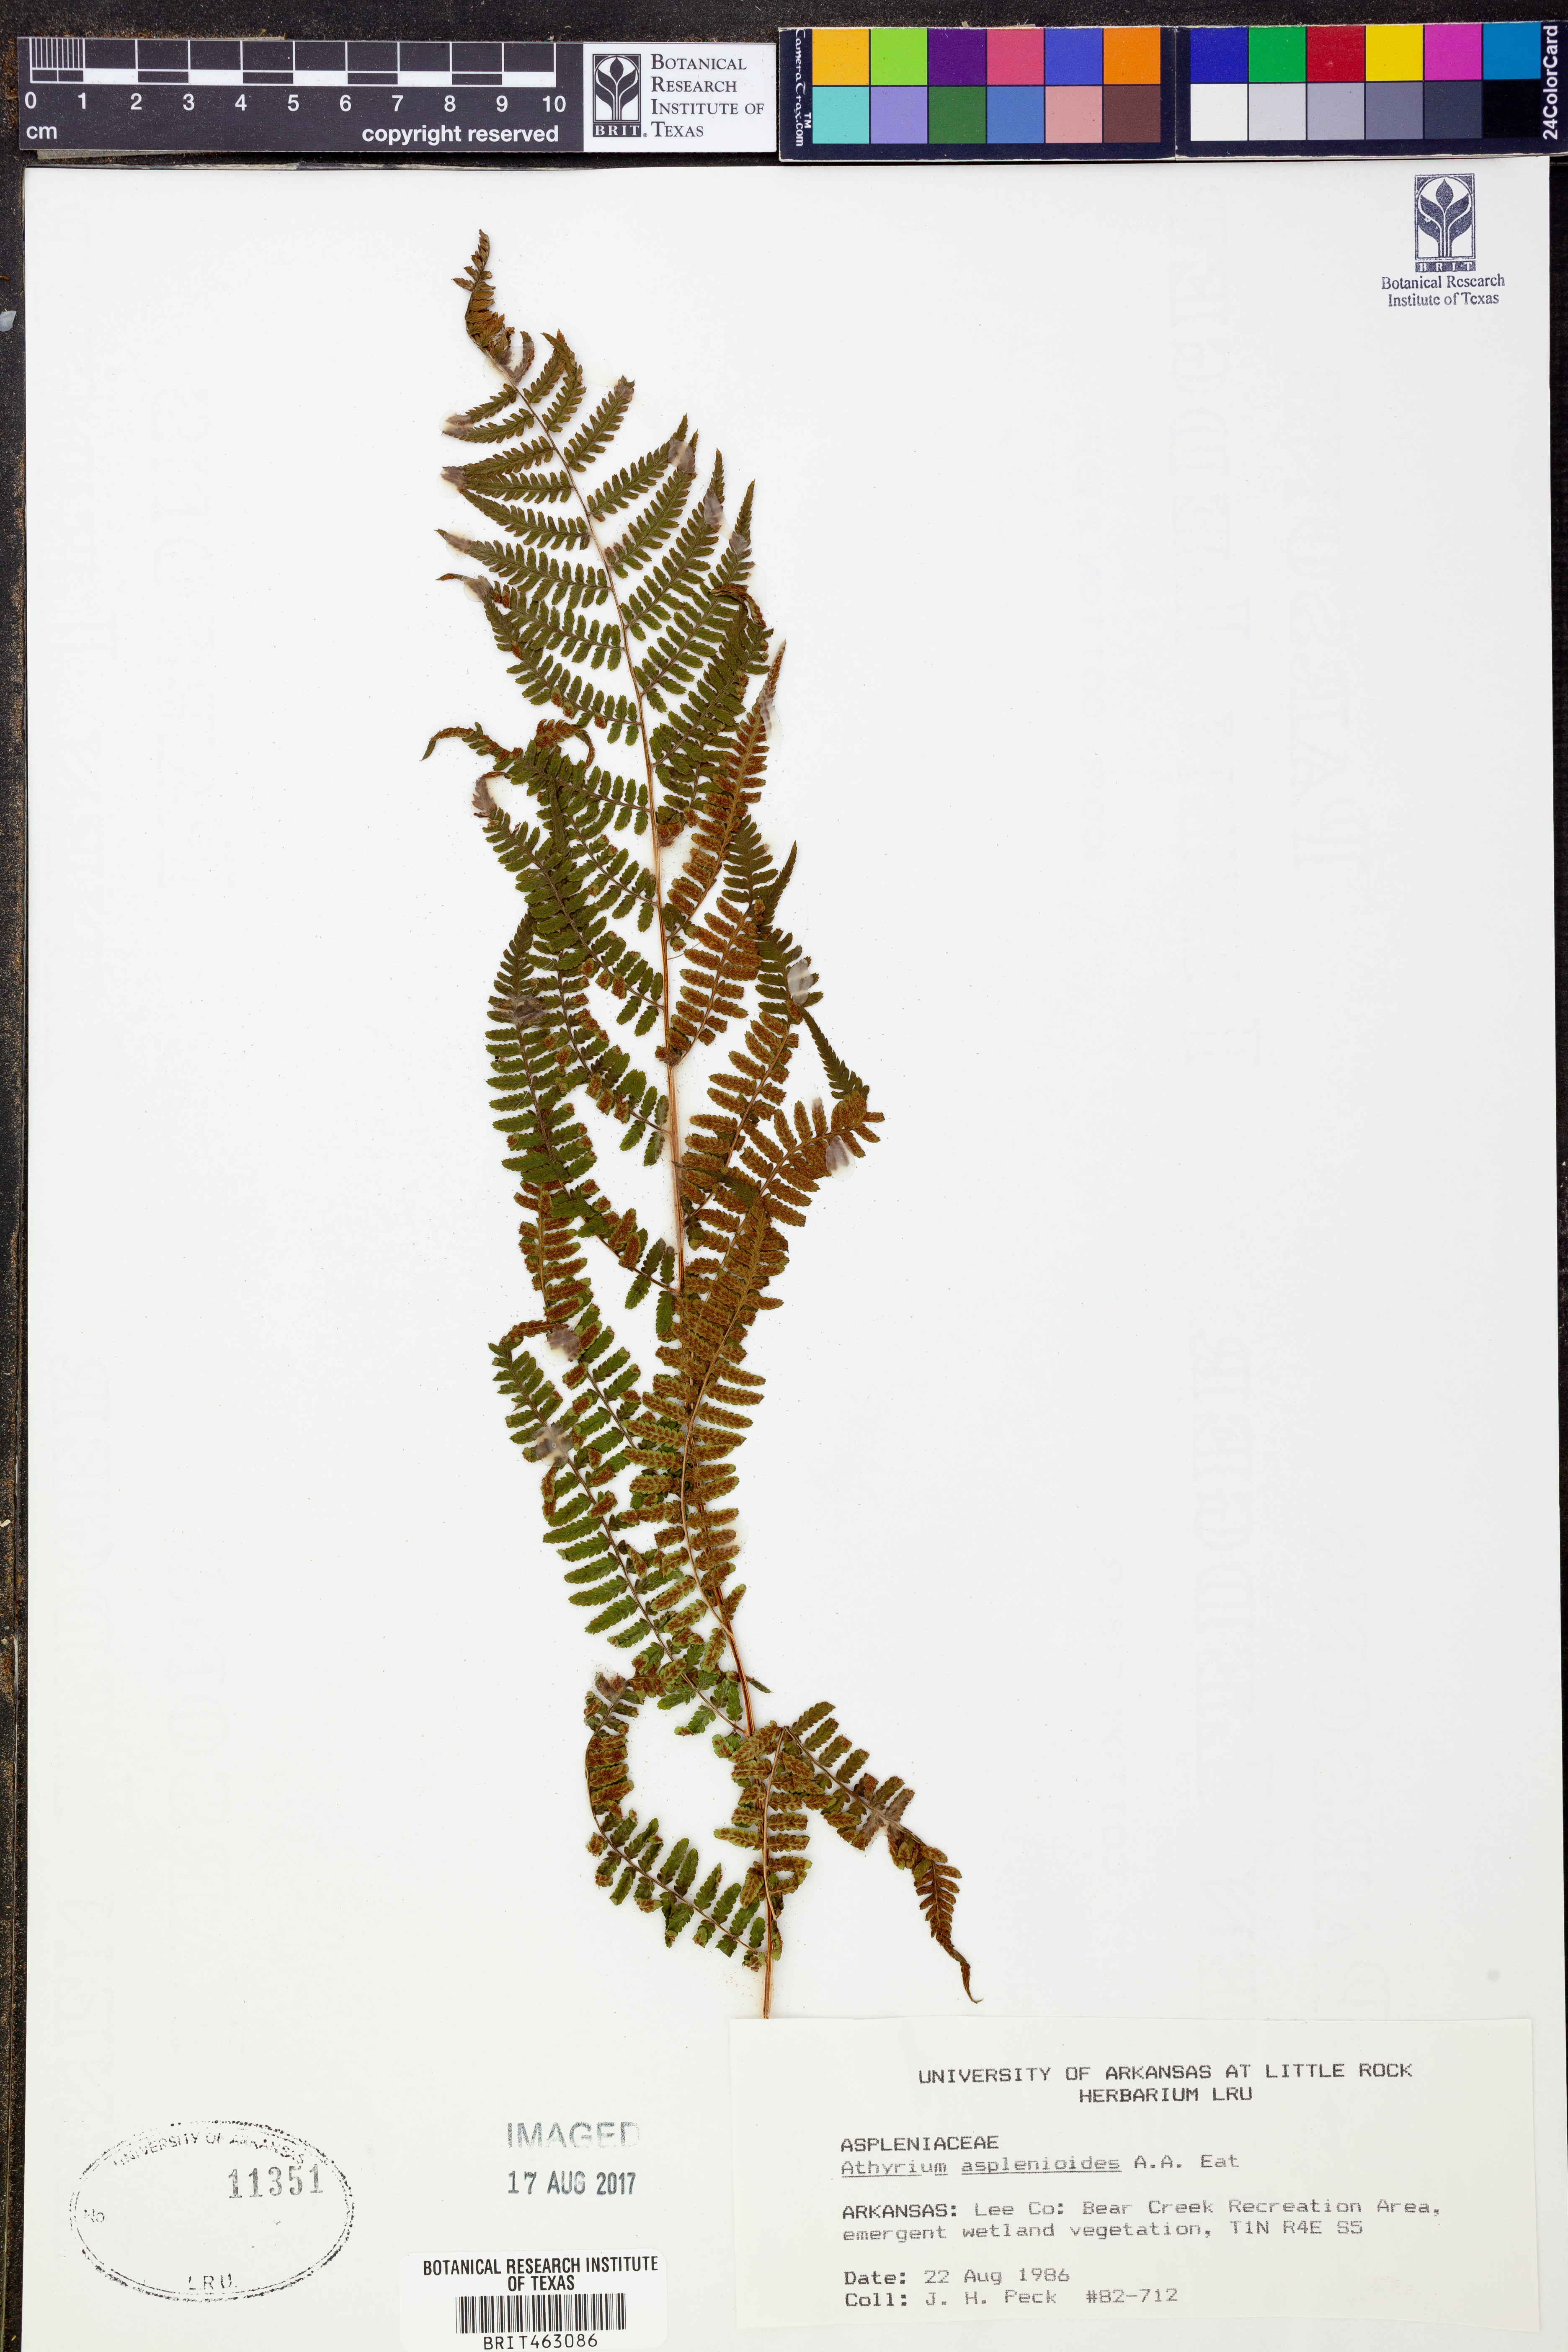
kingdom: Plantae
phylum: Tracheophyta
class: Polypodiopsida
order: Polypodiales
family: Athyriaceae
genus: Athyrium
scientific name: Athyrium asplenioides
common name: Southern lady fern
